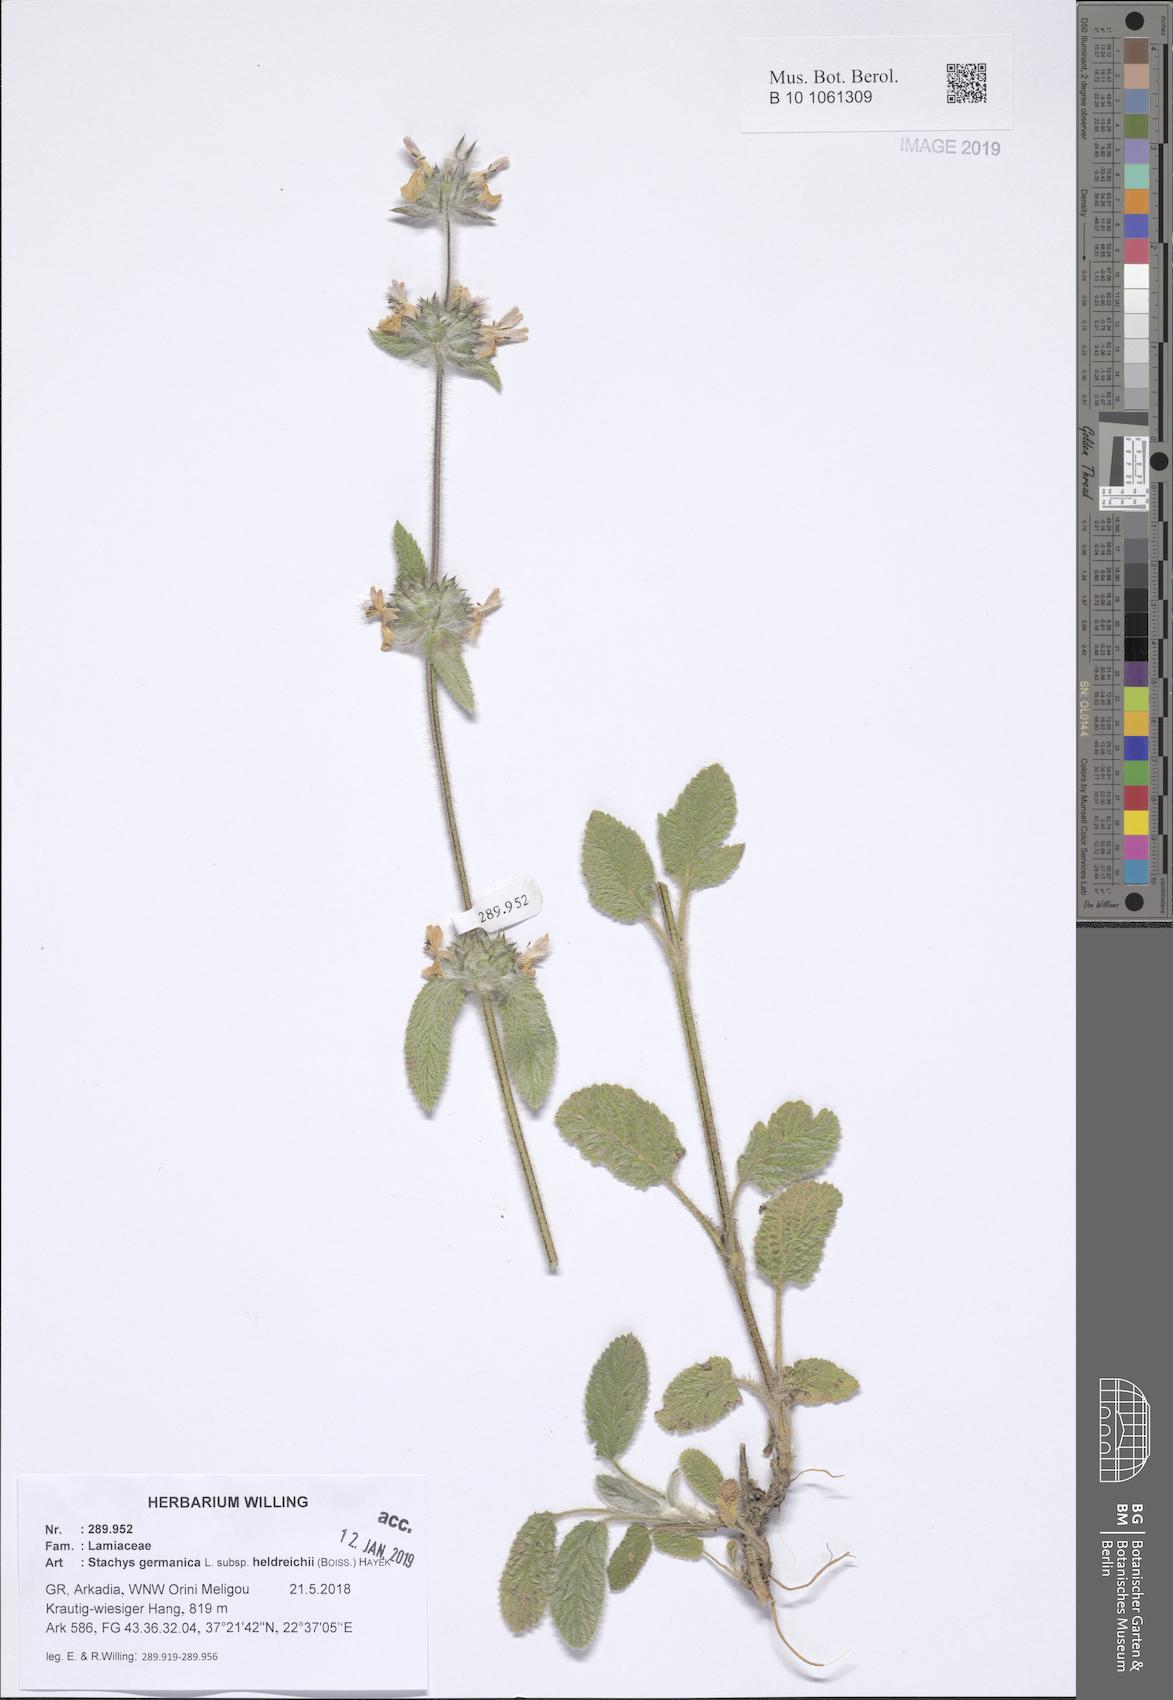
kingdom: Plantae
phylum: Tracheophyta
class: Magnoliopsida
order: Lamiales
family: Lamiaceae
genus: Stachys
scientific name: Stachys germanica
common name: Downy woundwort
